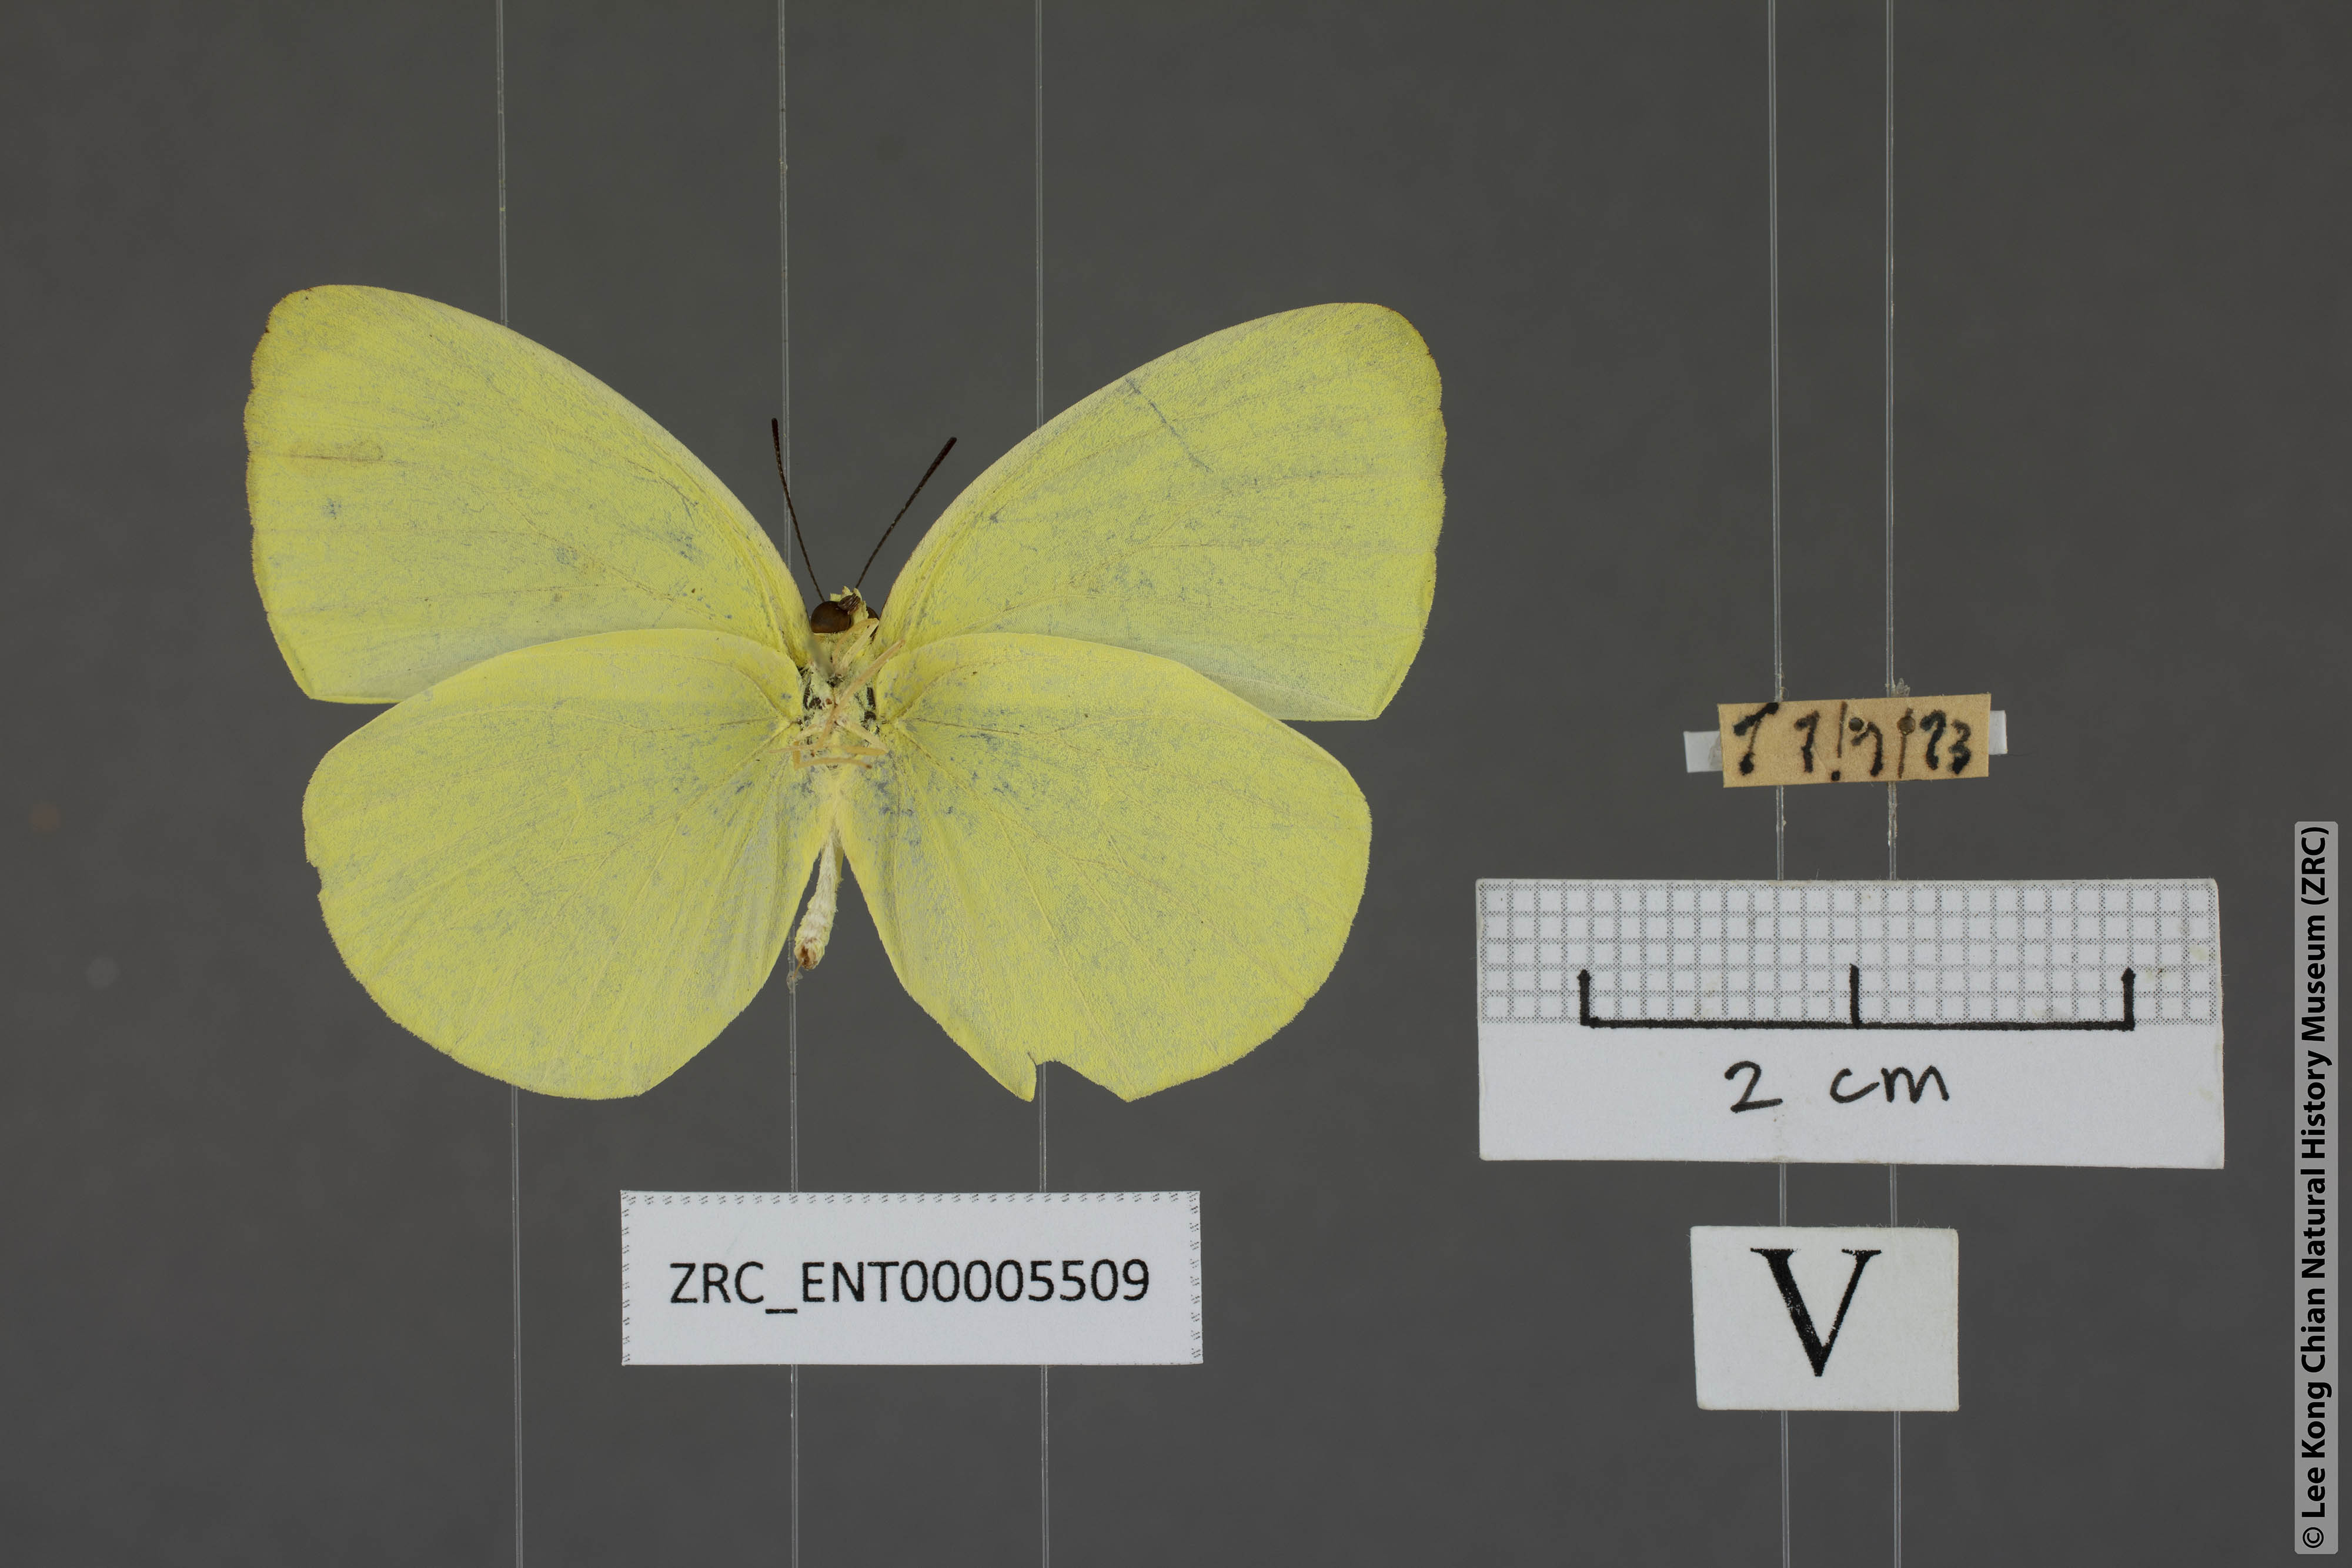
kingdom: Animalia
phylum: Arthropoda
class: Insecta
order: Lepidoptera
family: Pieridae
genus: Gandaca
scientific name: Gandaca harina
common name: Tree yellow
